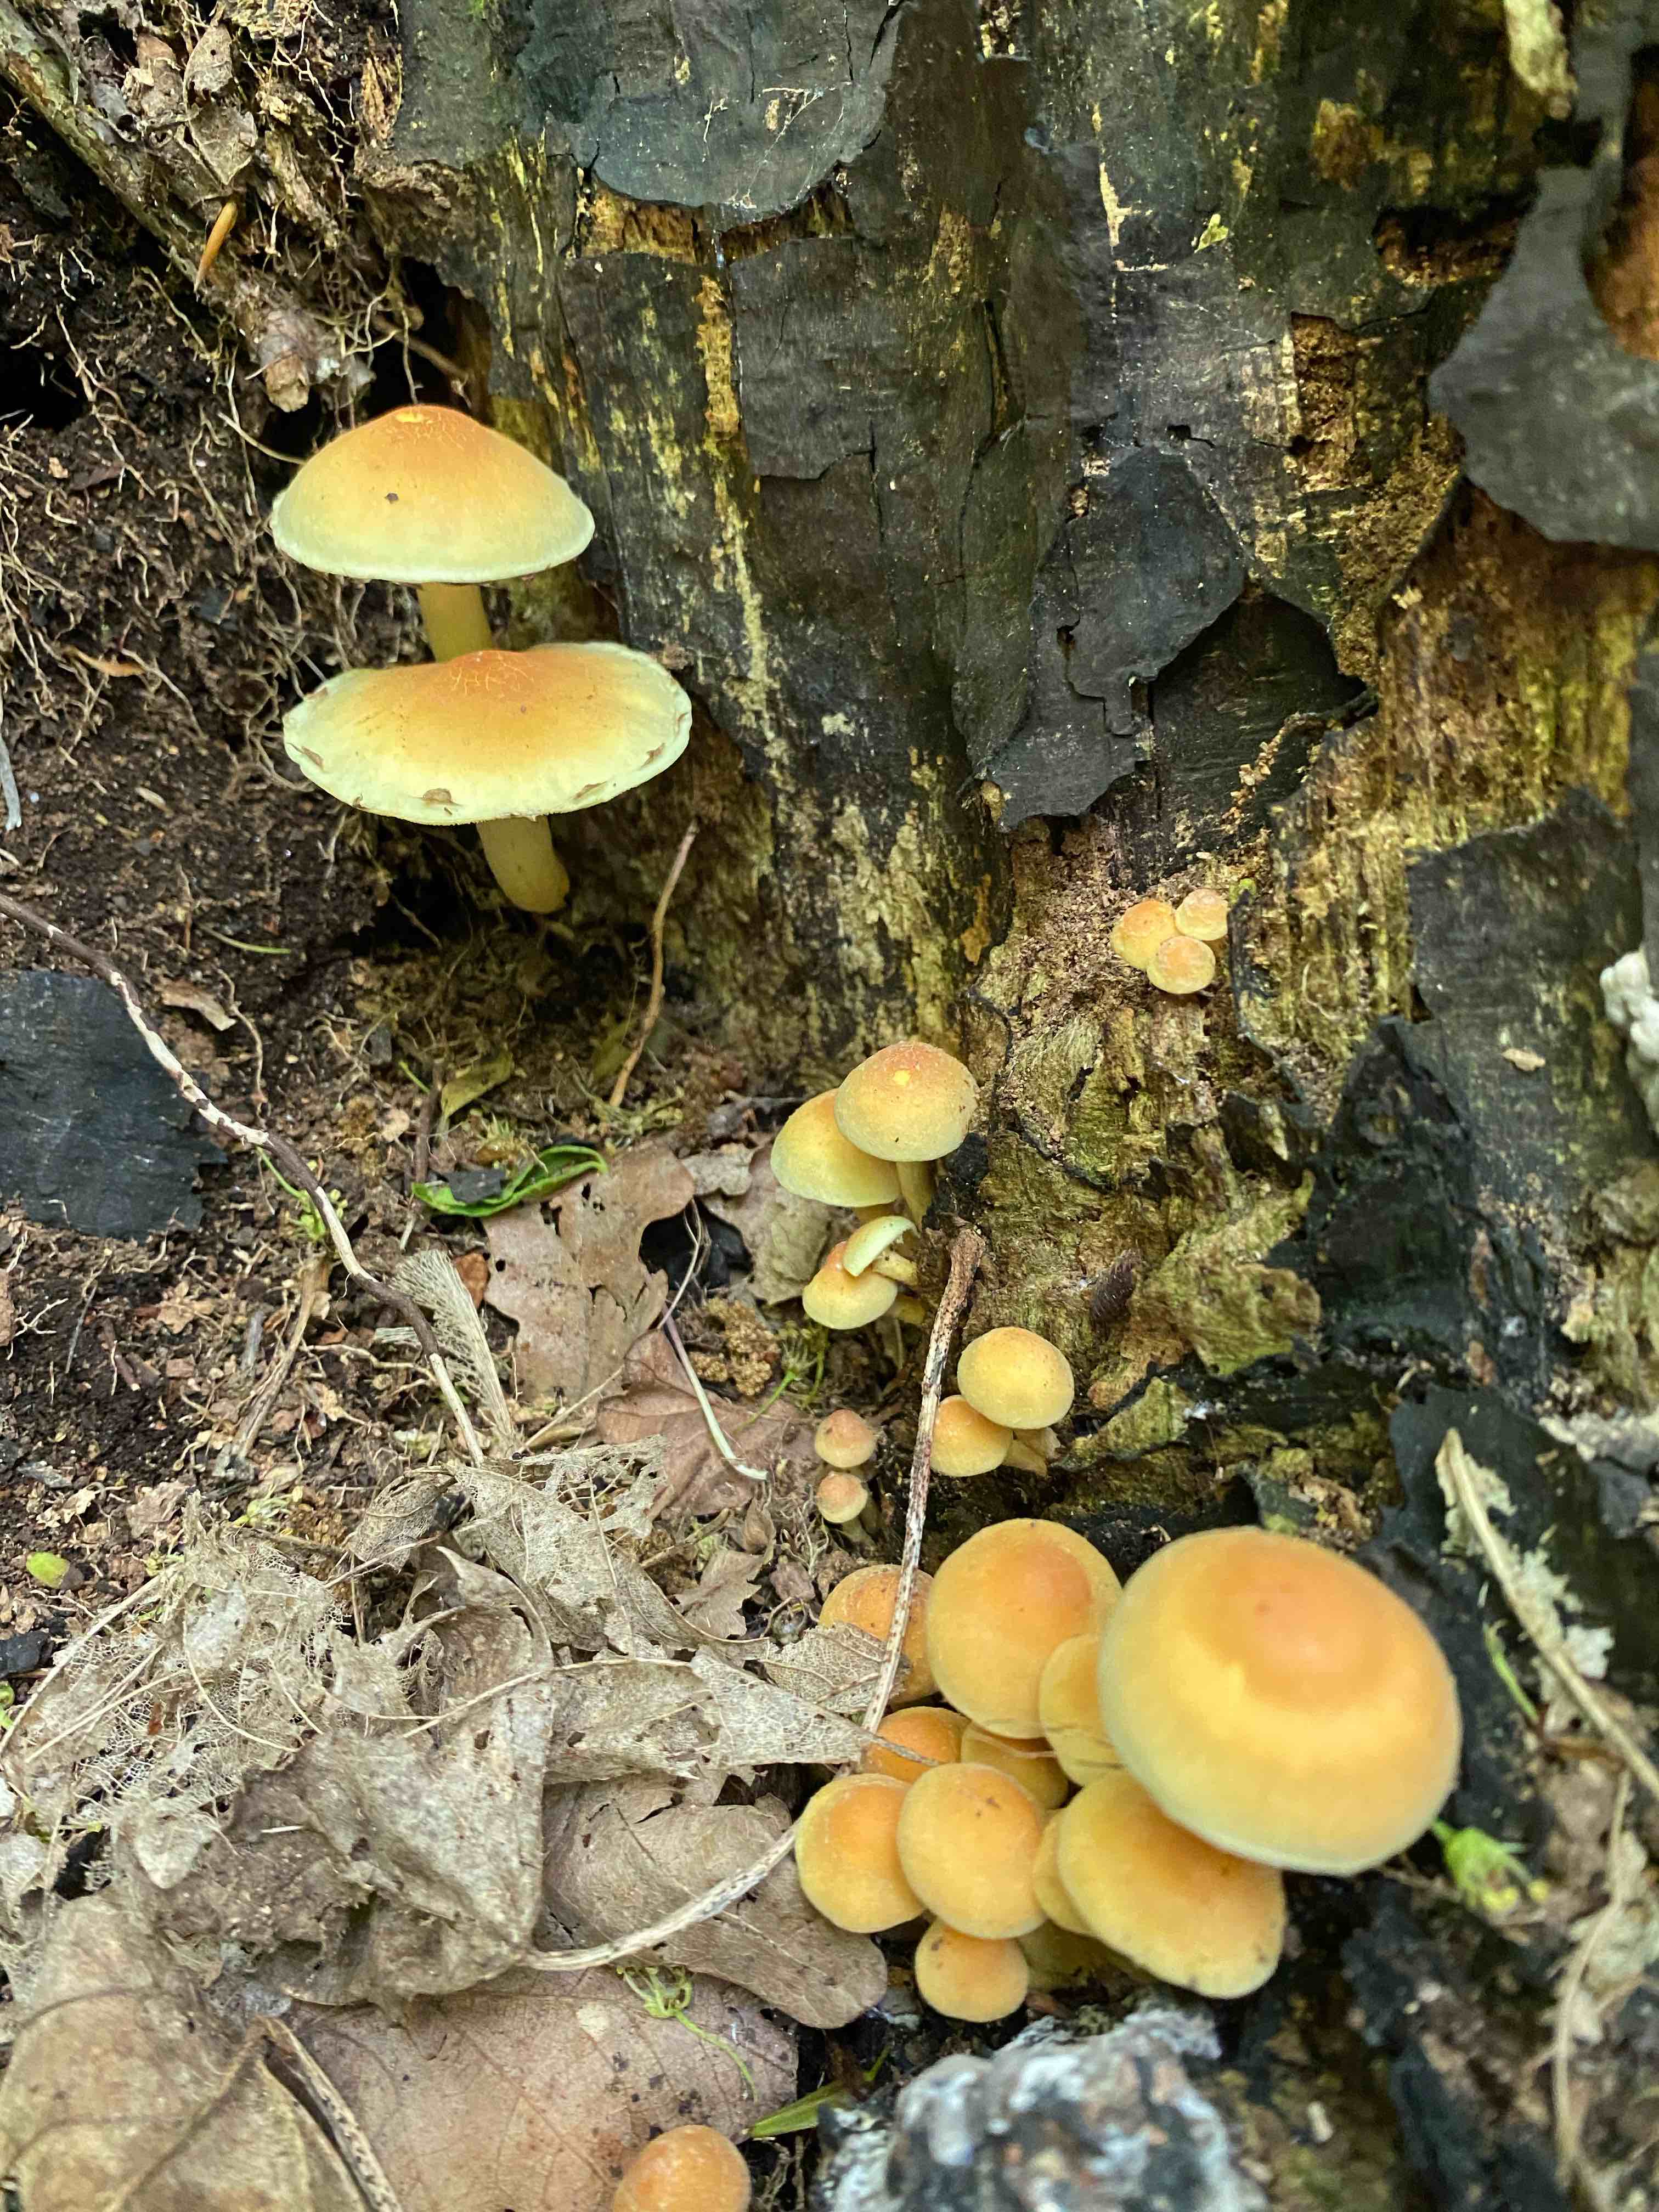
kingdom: Fungi
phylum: Basidiomycota
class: Agaricomycetes
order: Agaricales
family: Strophariaceae
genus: Hypholoma
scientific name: Hypholoma fasciculare
